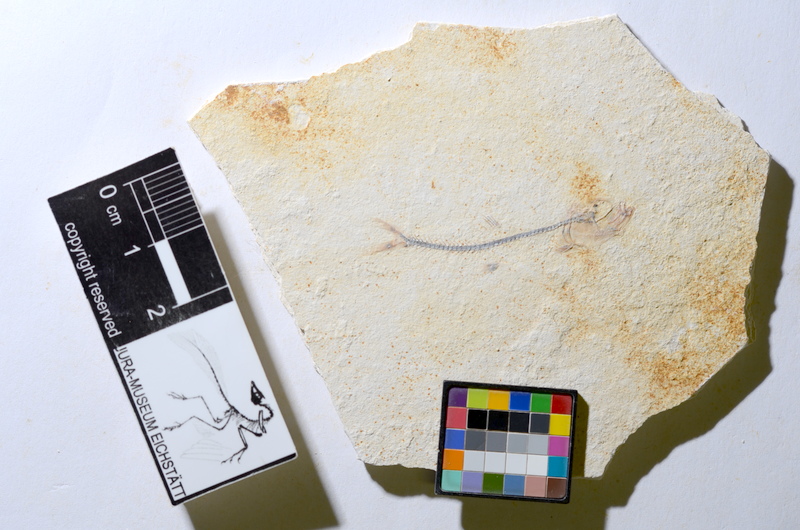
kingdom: Animalia
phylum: Chordata
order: Salmoniformes
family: Orthogonikleithridae
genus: Orthogonikleithrus
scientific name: Orthogonikleithrus hoelli
